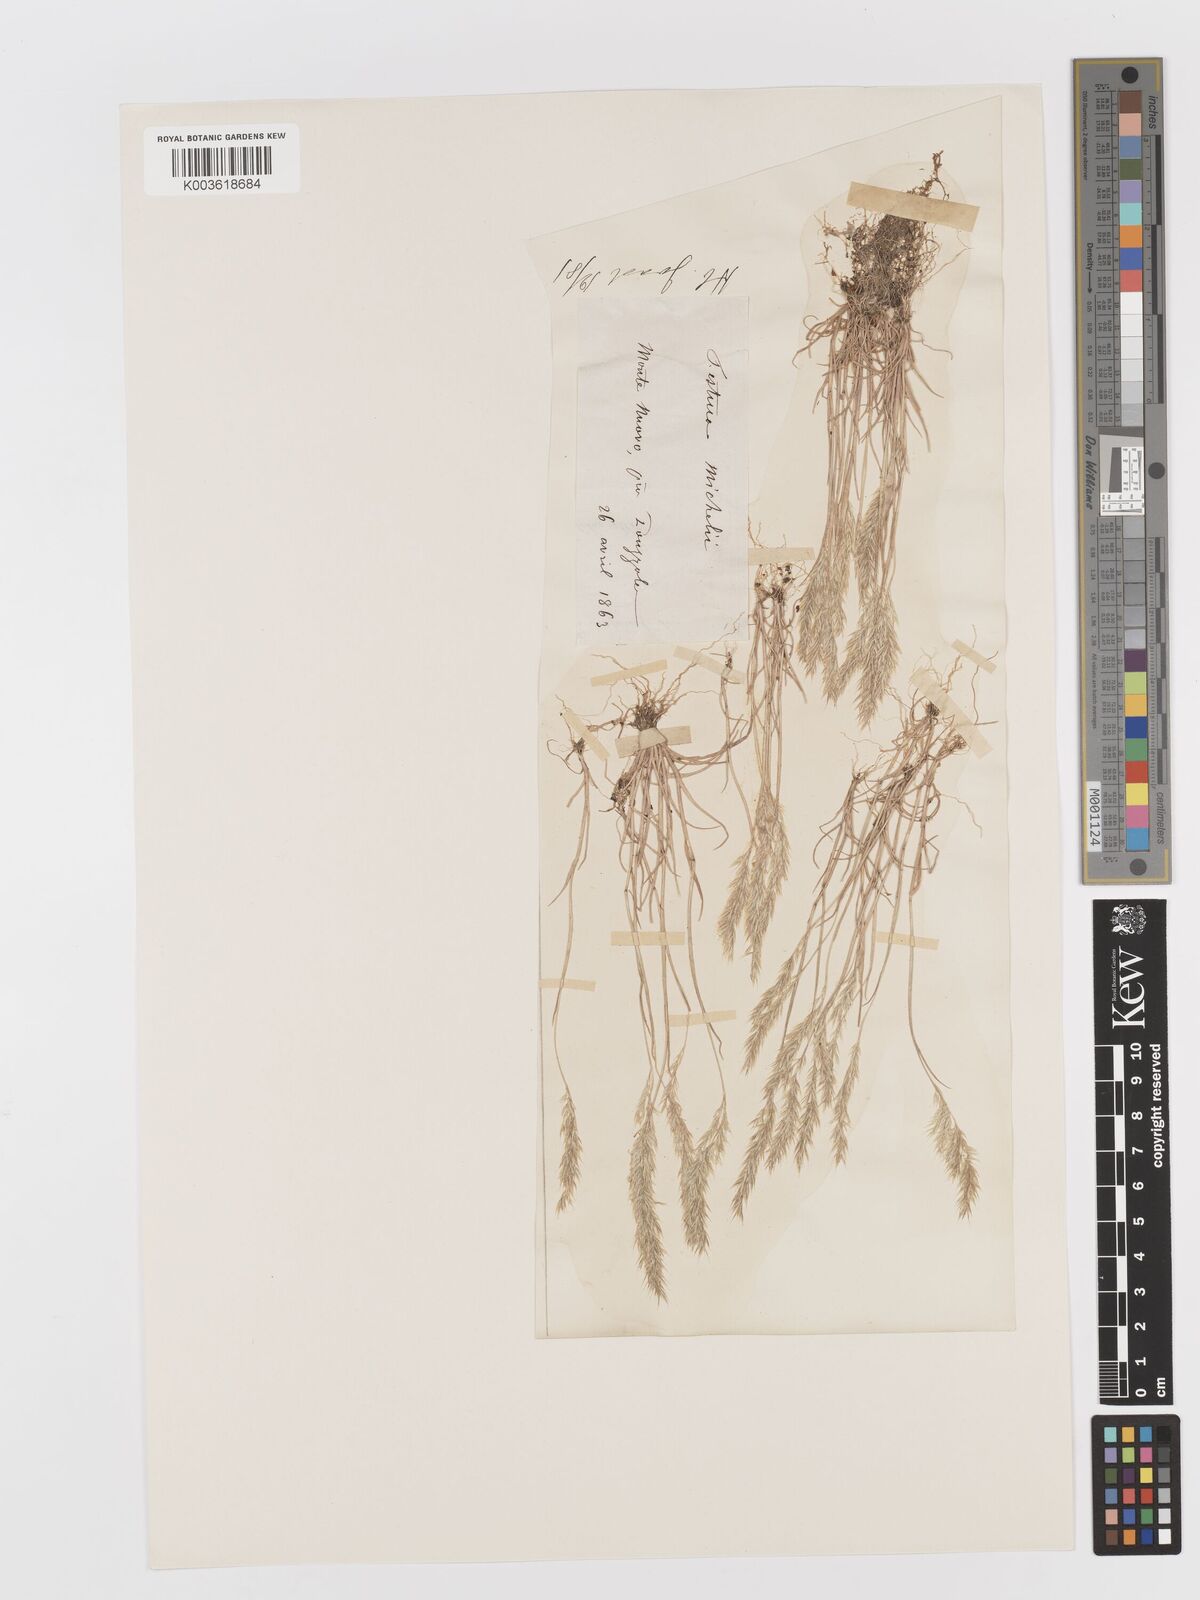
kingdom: Plantae
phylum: Tracheophyta
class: Liliopsida
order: Poales
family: Poaceae
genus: Avellinia
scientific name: Avellinia festucoides
